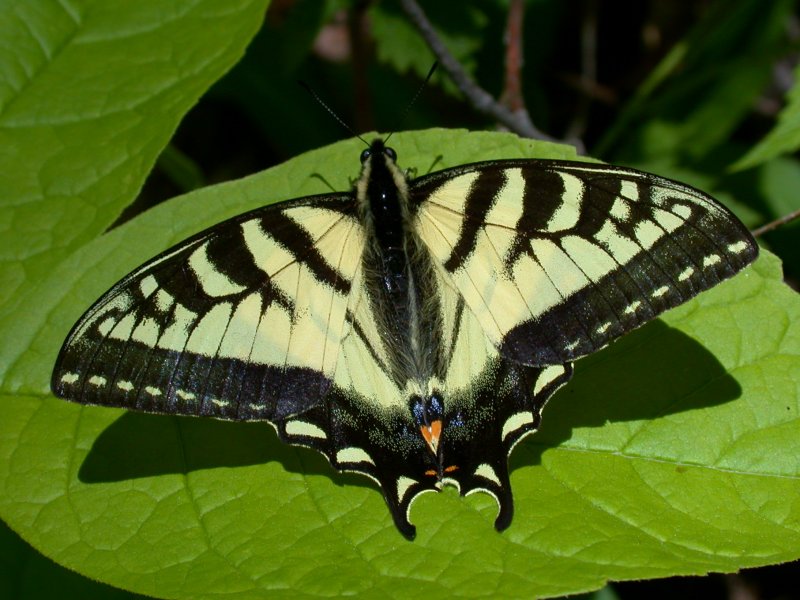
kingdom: Animalia
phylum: Arthropoda
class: Insecta
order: Lepidoptera
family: Papilionidae
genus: Pterourus
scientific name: Pterourus canadensis
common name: Canadian Tiger Swallowtail
